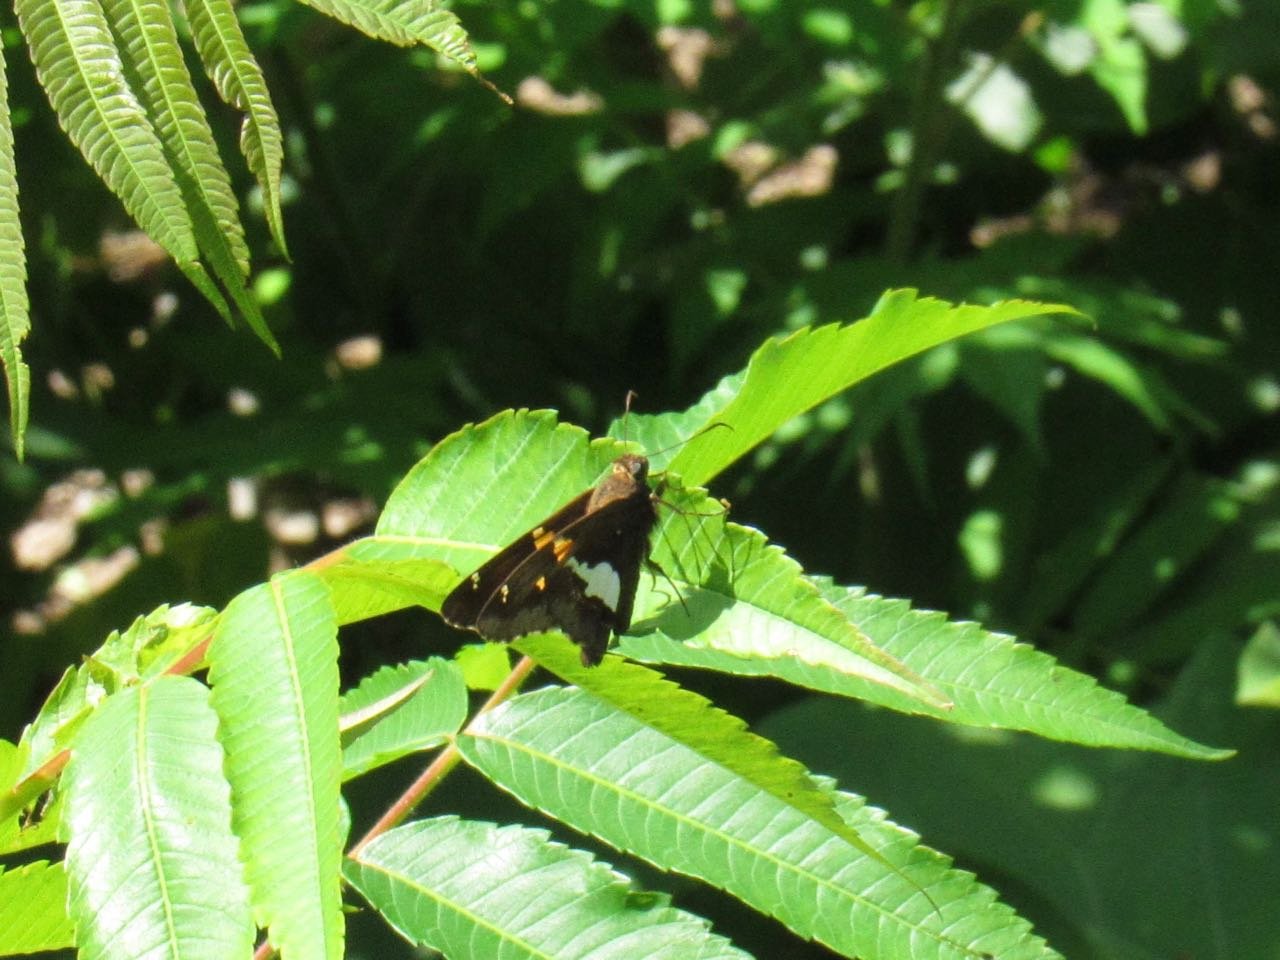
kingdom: Animalia
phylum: Arthropoda
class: Insecta
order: Lepidoptera
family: Hesperiidae
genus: Epargyreus
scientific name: Epargyreus clarus
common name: Silver-spotted Skipper
